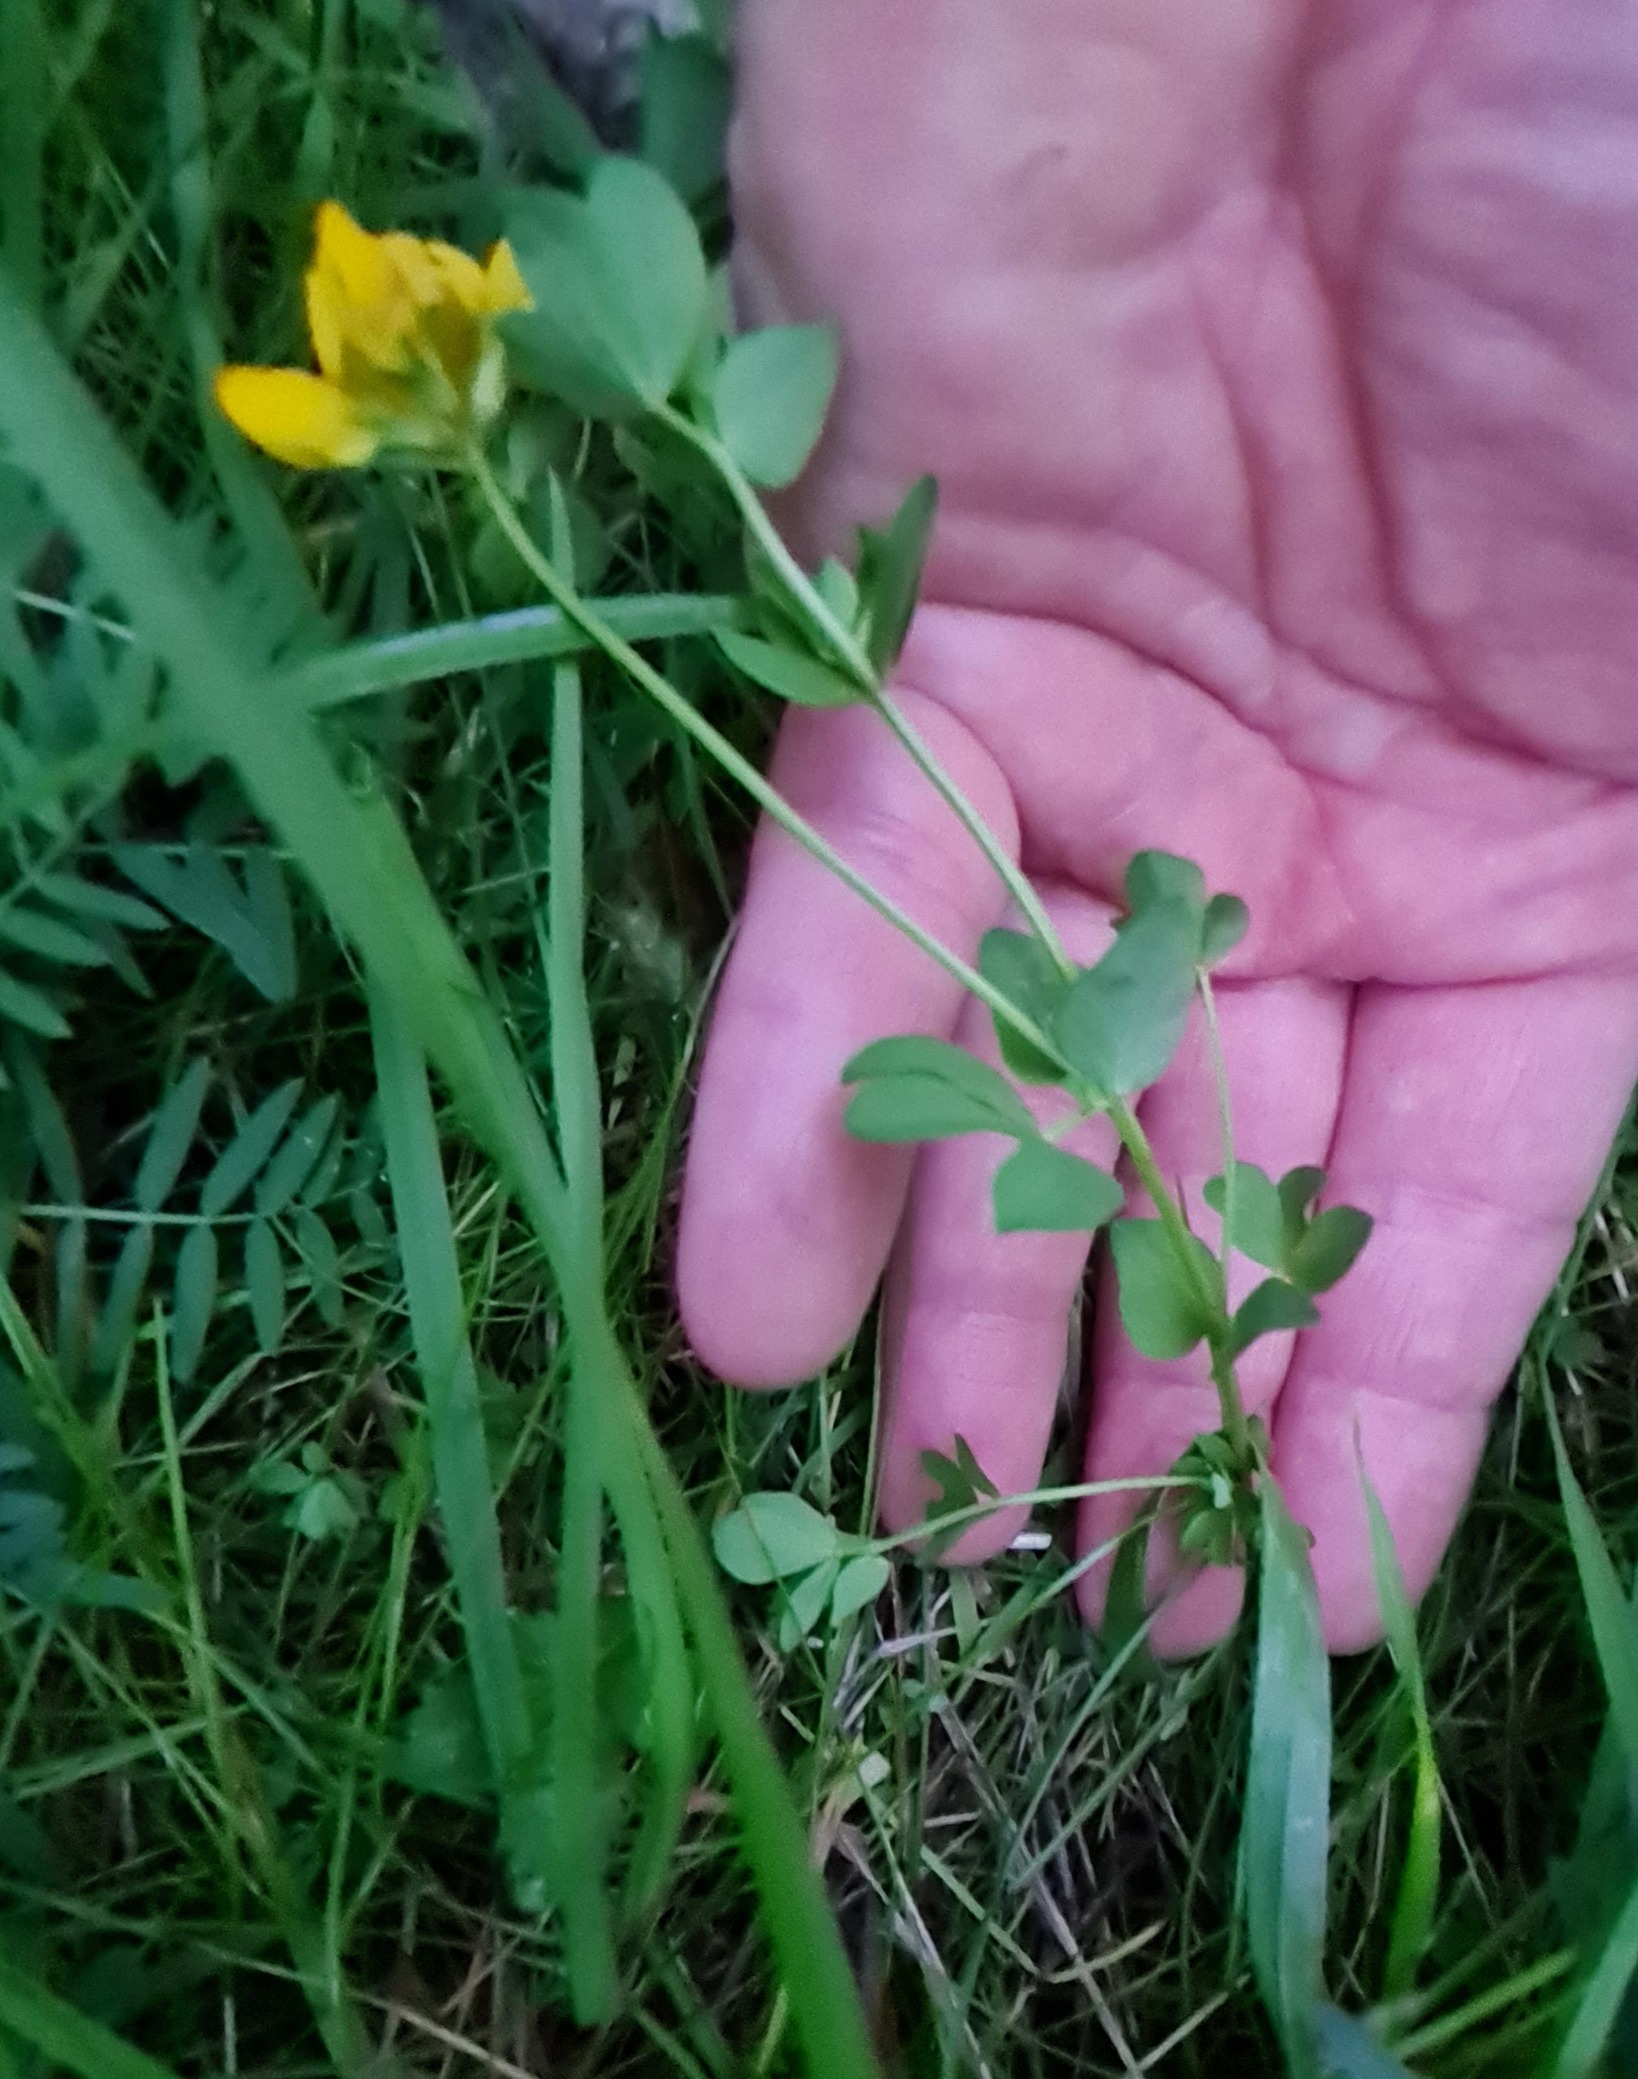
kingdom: Plantae
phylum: Tracheophyta
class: Magnoliopsida
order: Fabales
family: Fabaceae
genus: Lotus
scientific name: Lotus corniculatus
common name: Almindelig kællingetand
